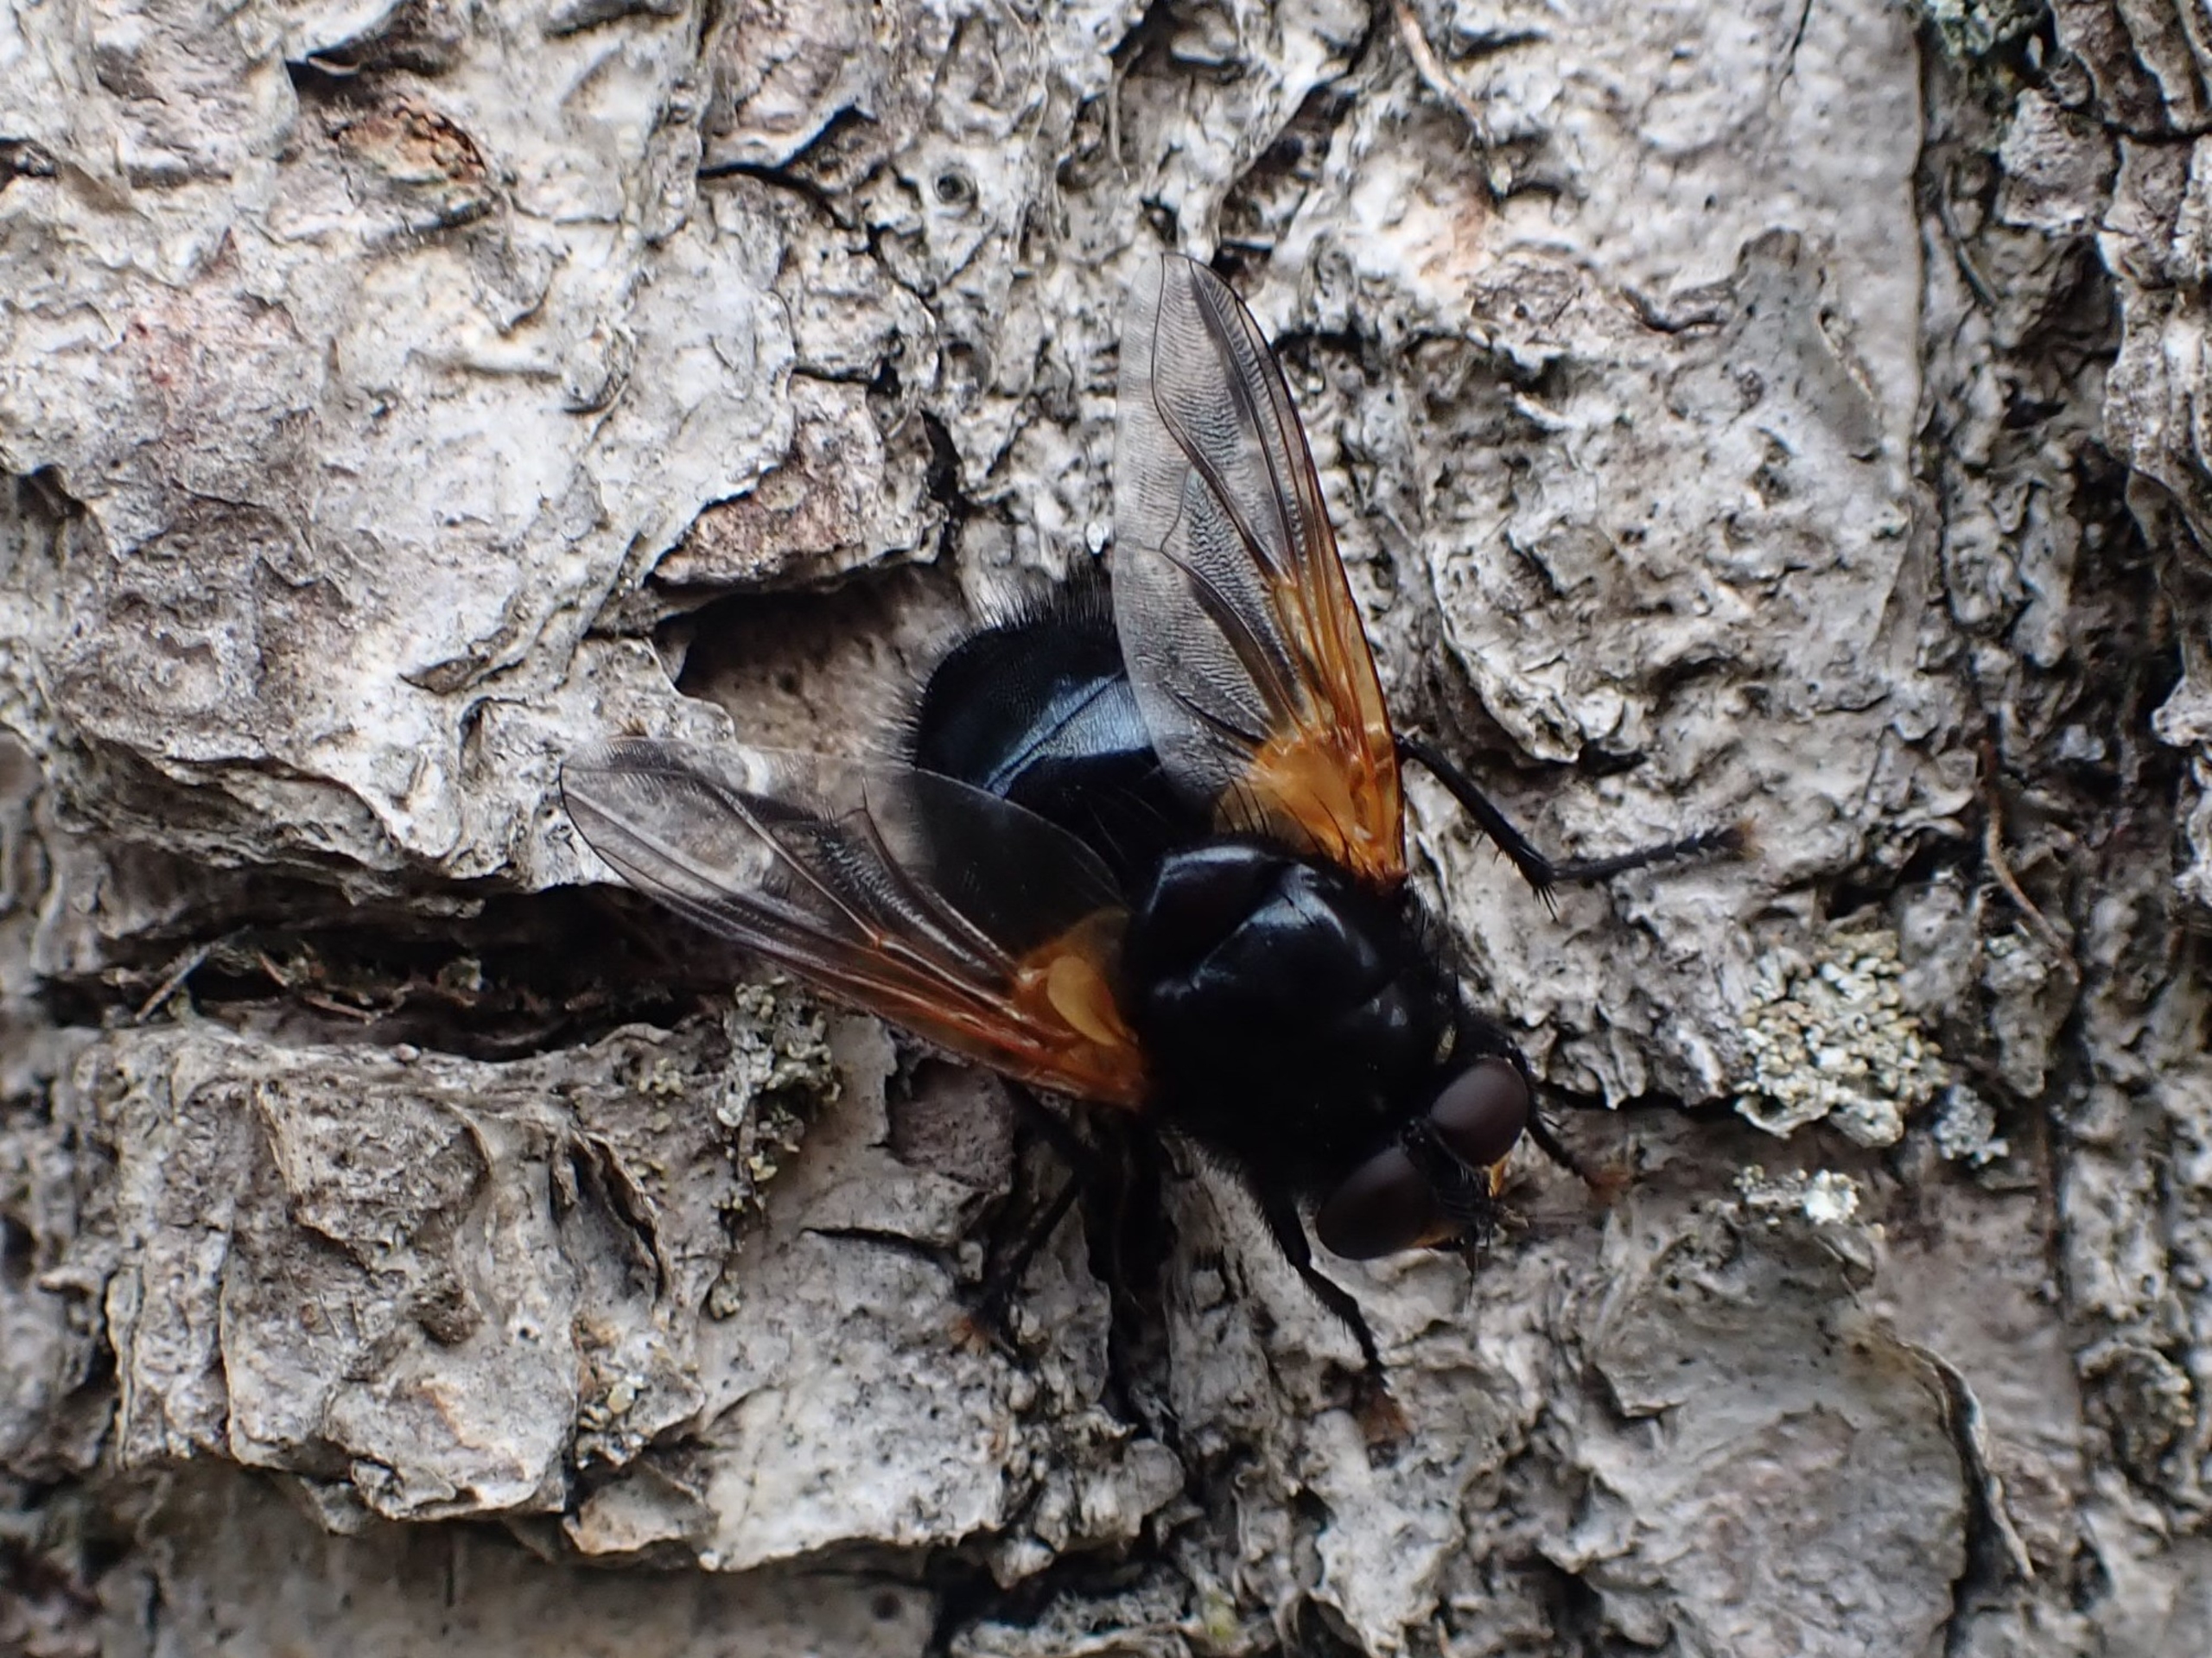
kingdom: Animalia
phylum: Arthropoda
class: Insecta
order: Diptera
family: Muscidae
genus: Mesembrina
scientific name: Mesembrina meridiana
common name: Gulvinget flue
